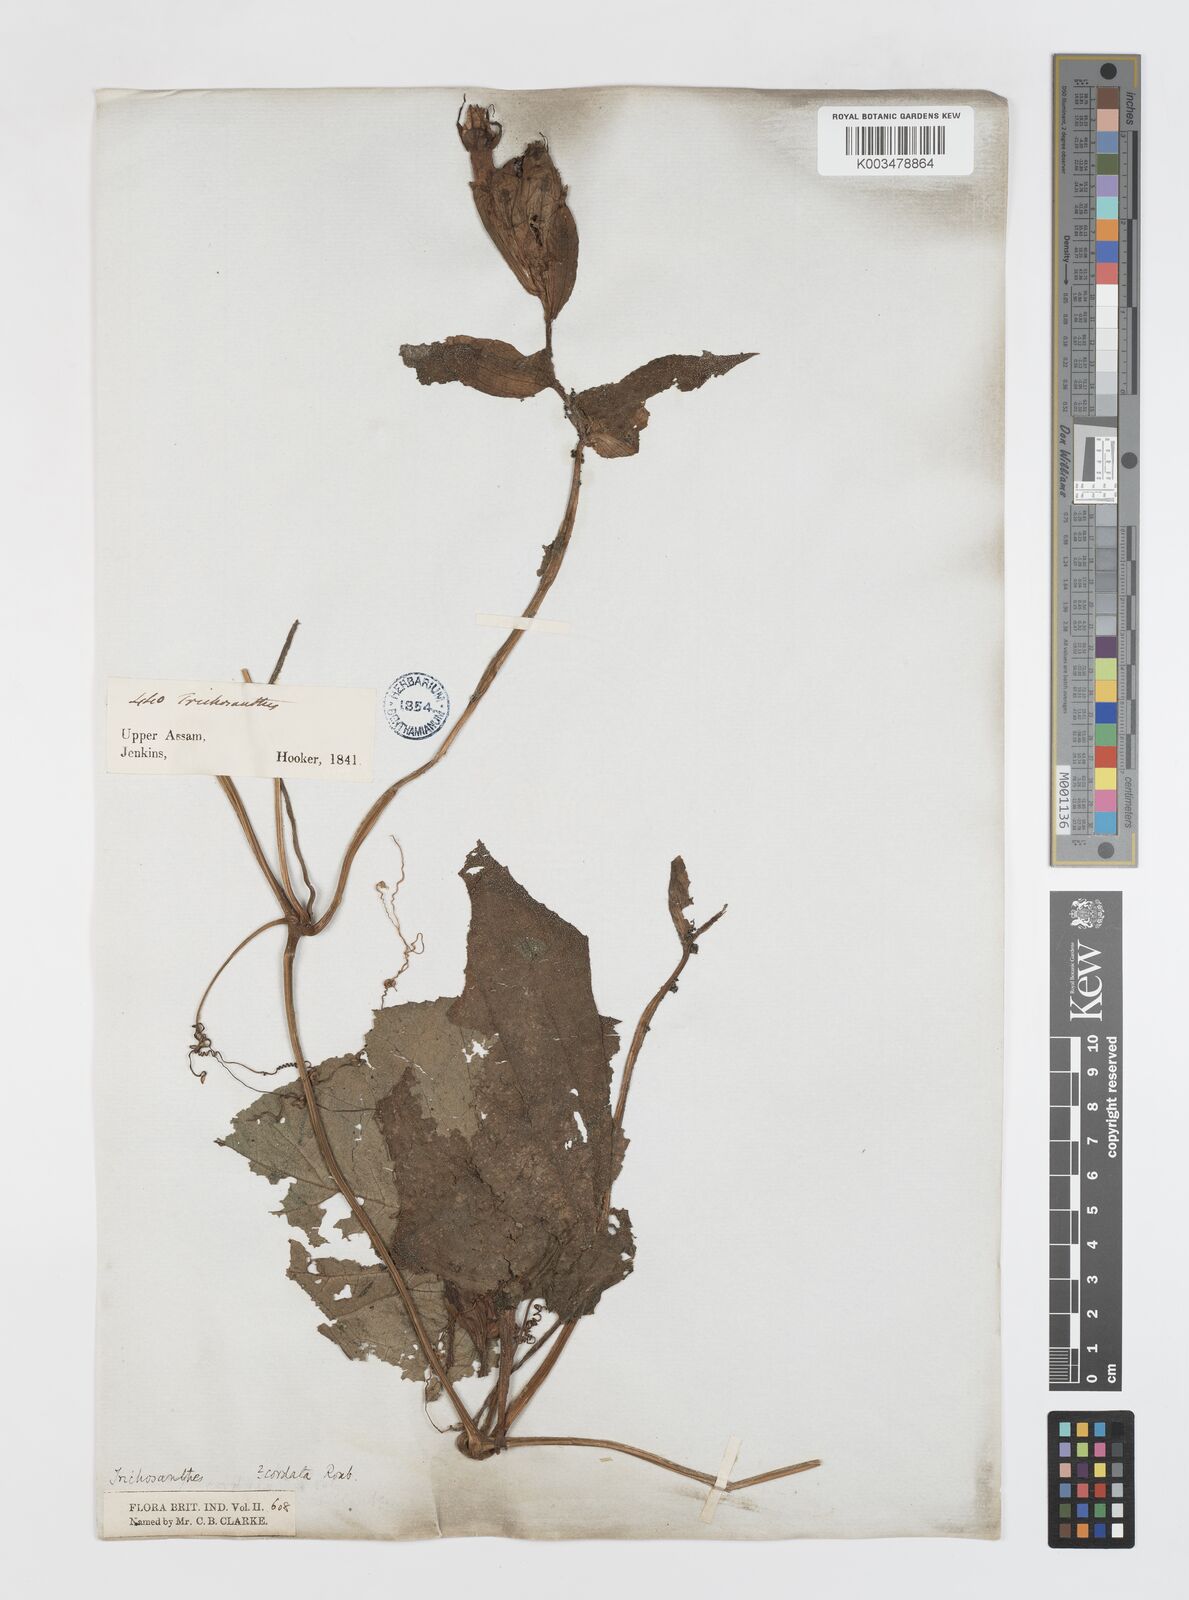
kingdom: Plantae
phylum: Tracheophyta
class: Magnoliopsida
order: Cucurbitales
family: Cucurbitaceae
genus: Trichosanthes
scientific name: Trichosanthes cordata
